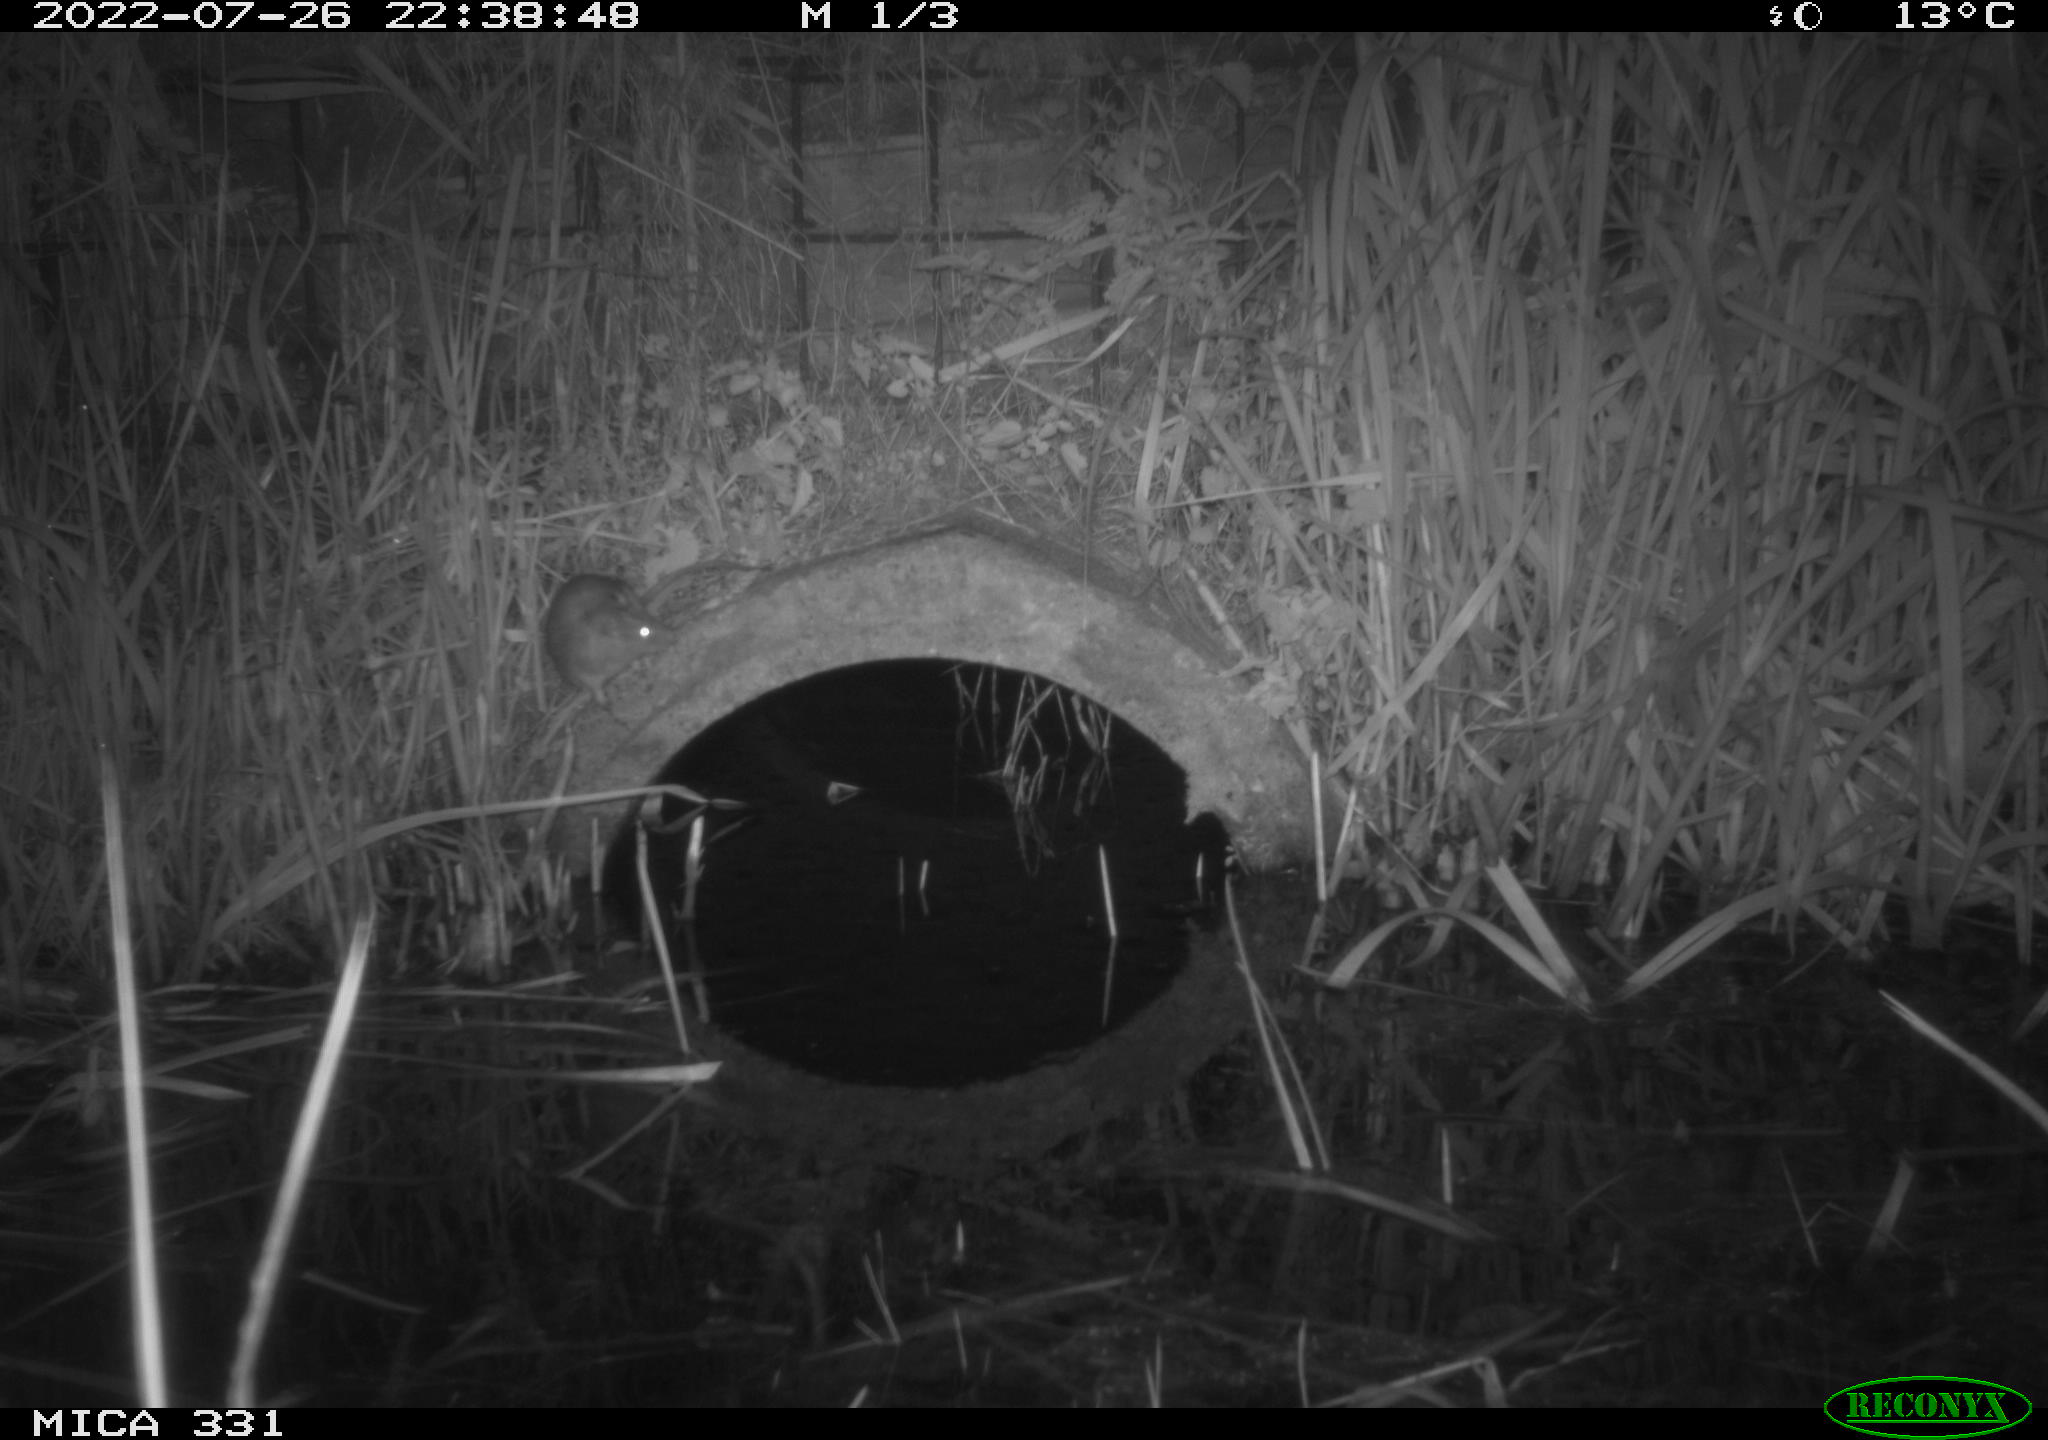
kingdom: Animalia
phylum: Chordata
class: Mammalia
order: Rodentia
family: Muridae
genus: Rattus
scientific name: Rattus norvegicus
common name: Brown rat
